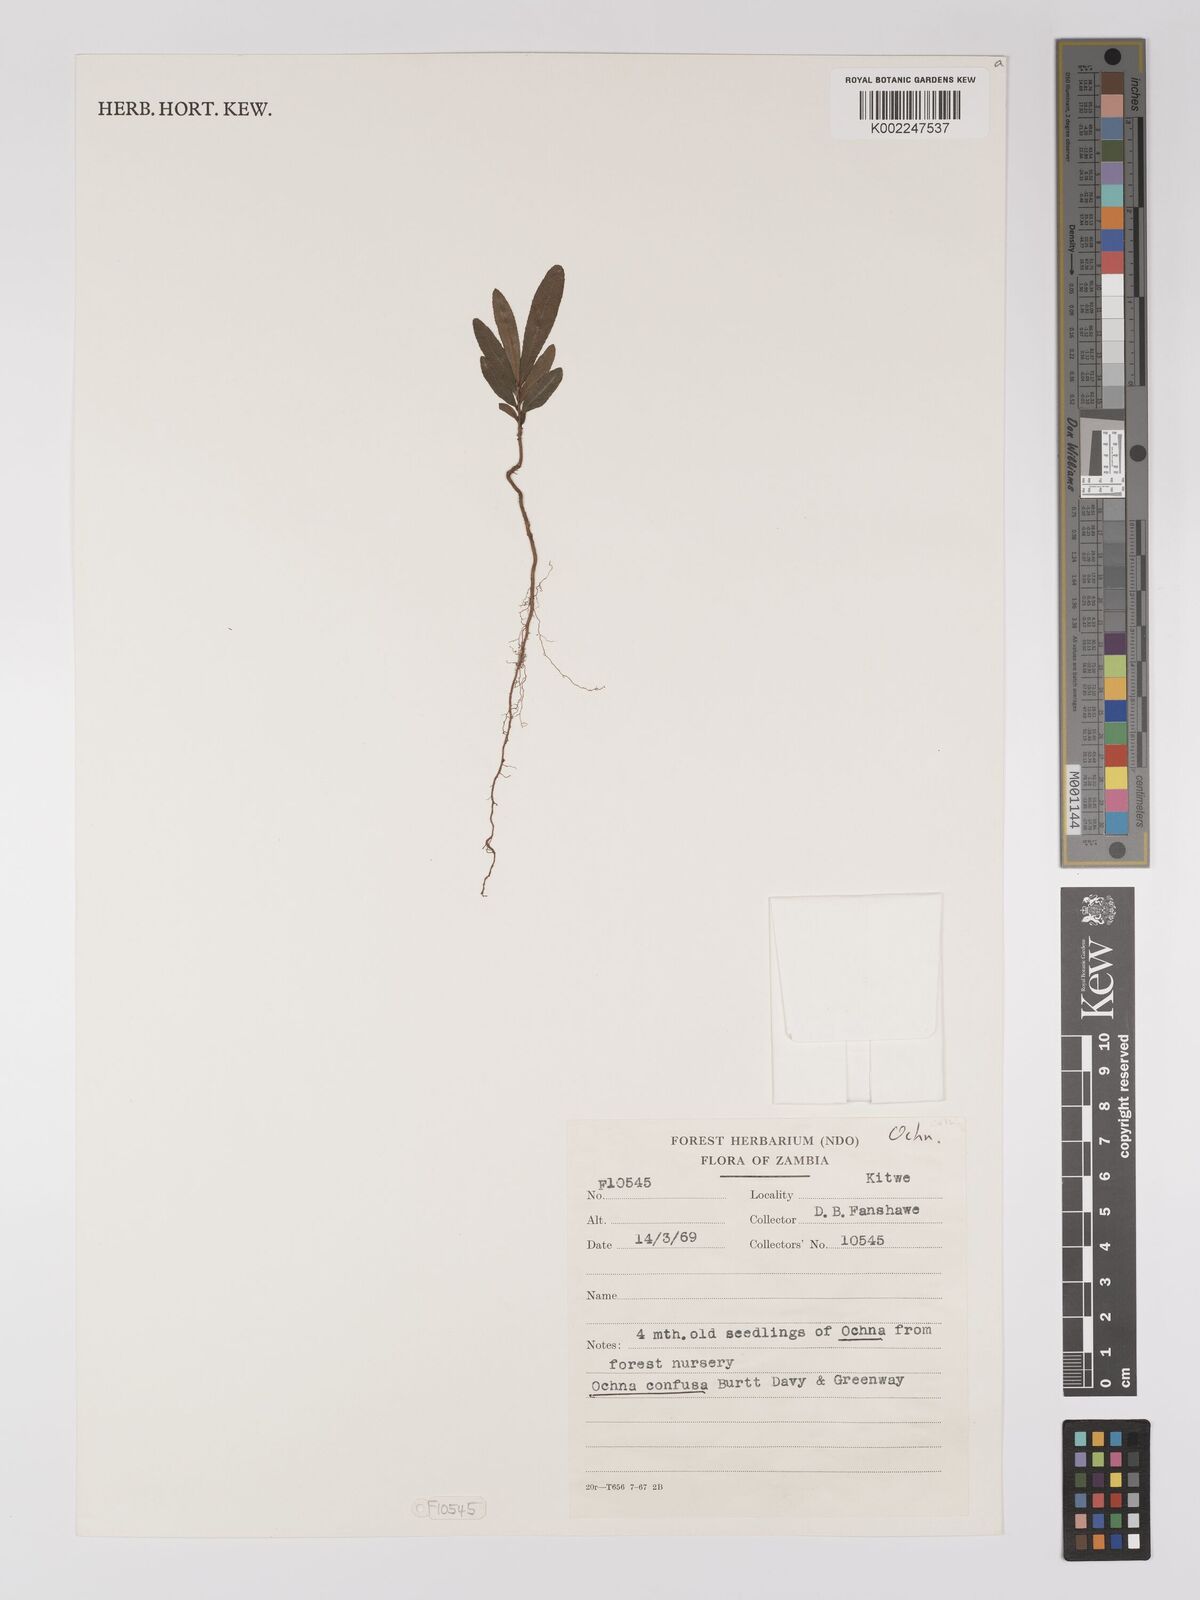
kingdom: Plantae
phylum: Tracheophyta
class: Magnoliopsida
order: Malpighiales
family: Ochnaceae
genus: Ochna
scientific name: Ochna confusa
